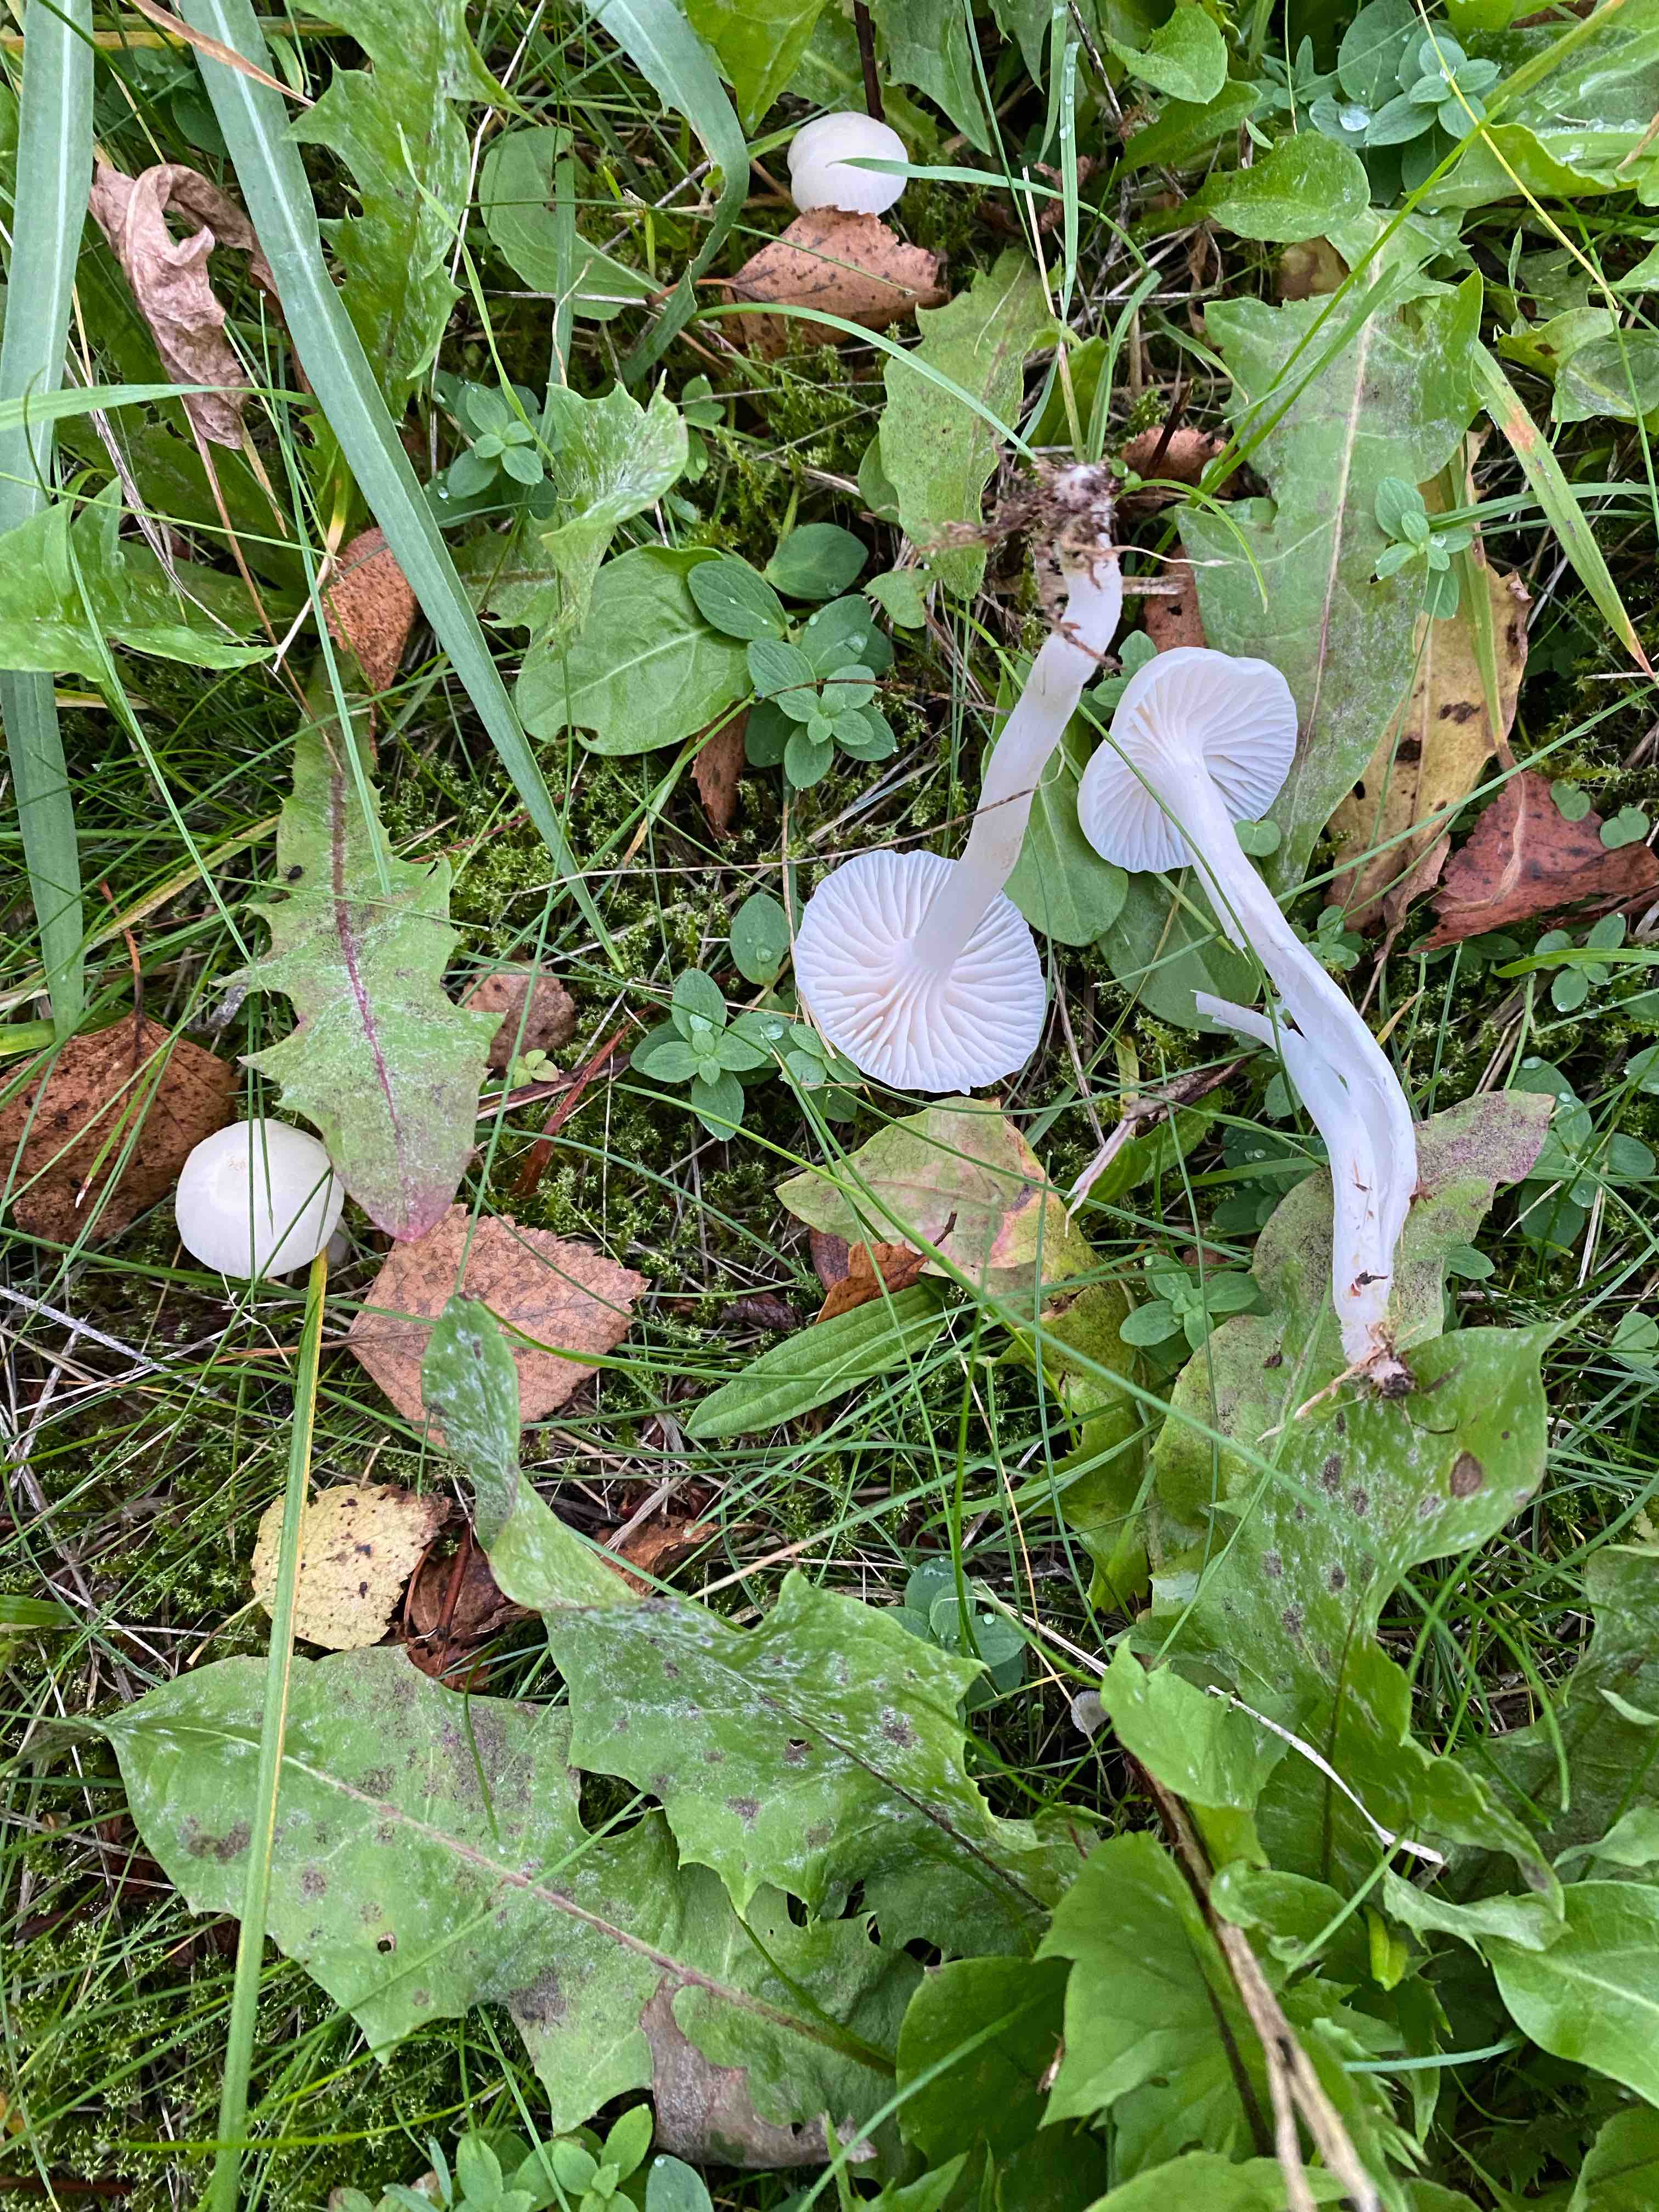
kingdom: Fungi
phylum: Basidiomycota
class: Agaricomycetes
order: Agaricales
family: Hygrophoraceae
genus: Cuphophyllus
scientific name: Cuphophyllus virgineus
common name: snehvid vokshat
